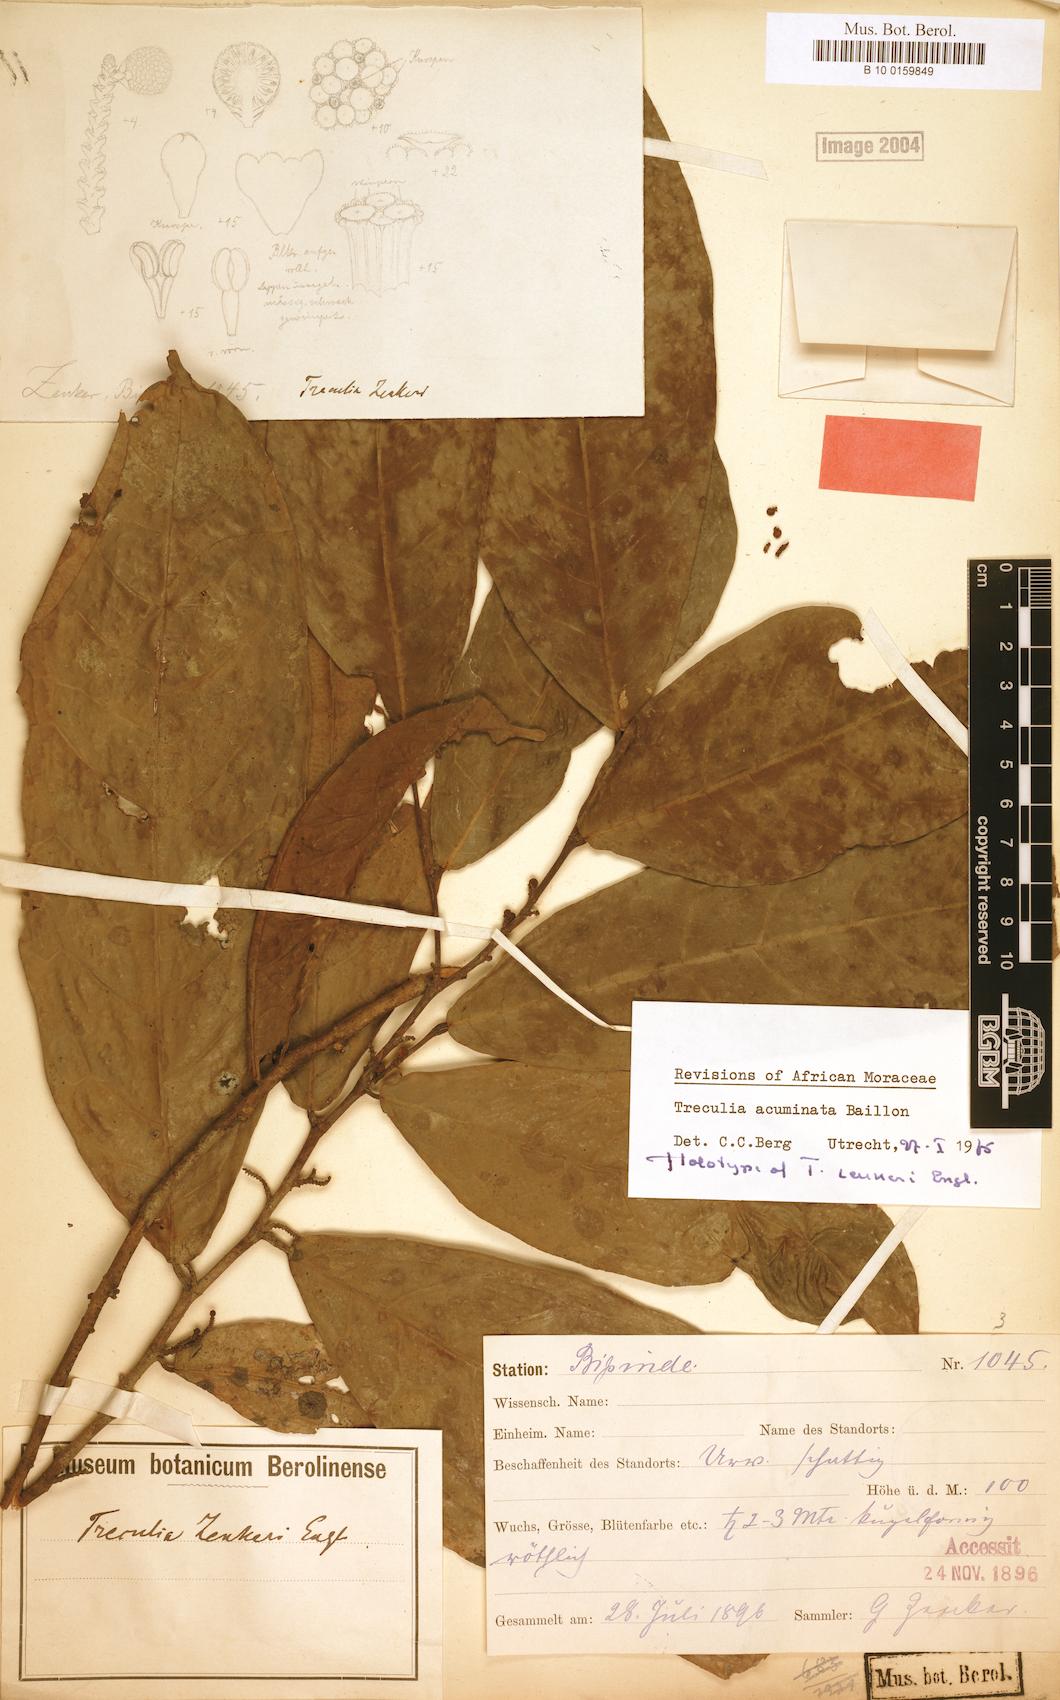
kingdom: Plantae
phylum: Tracheophyta
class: Magnoliopsida
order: Rosales
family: Moraceae
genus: Treculia
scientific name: Treculia acuminata
